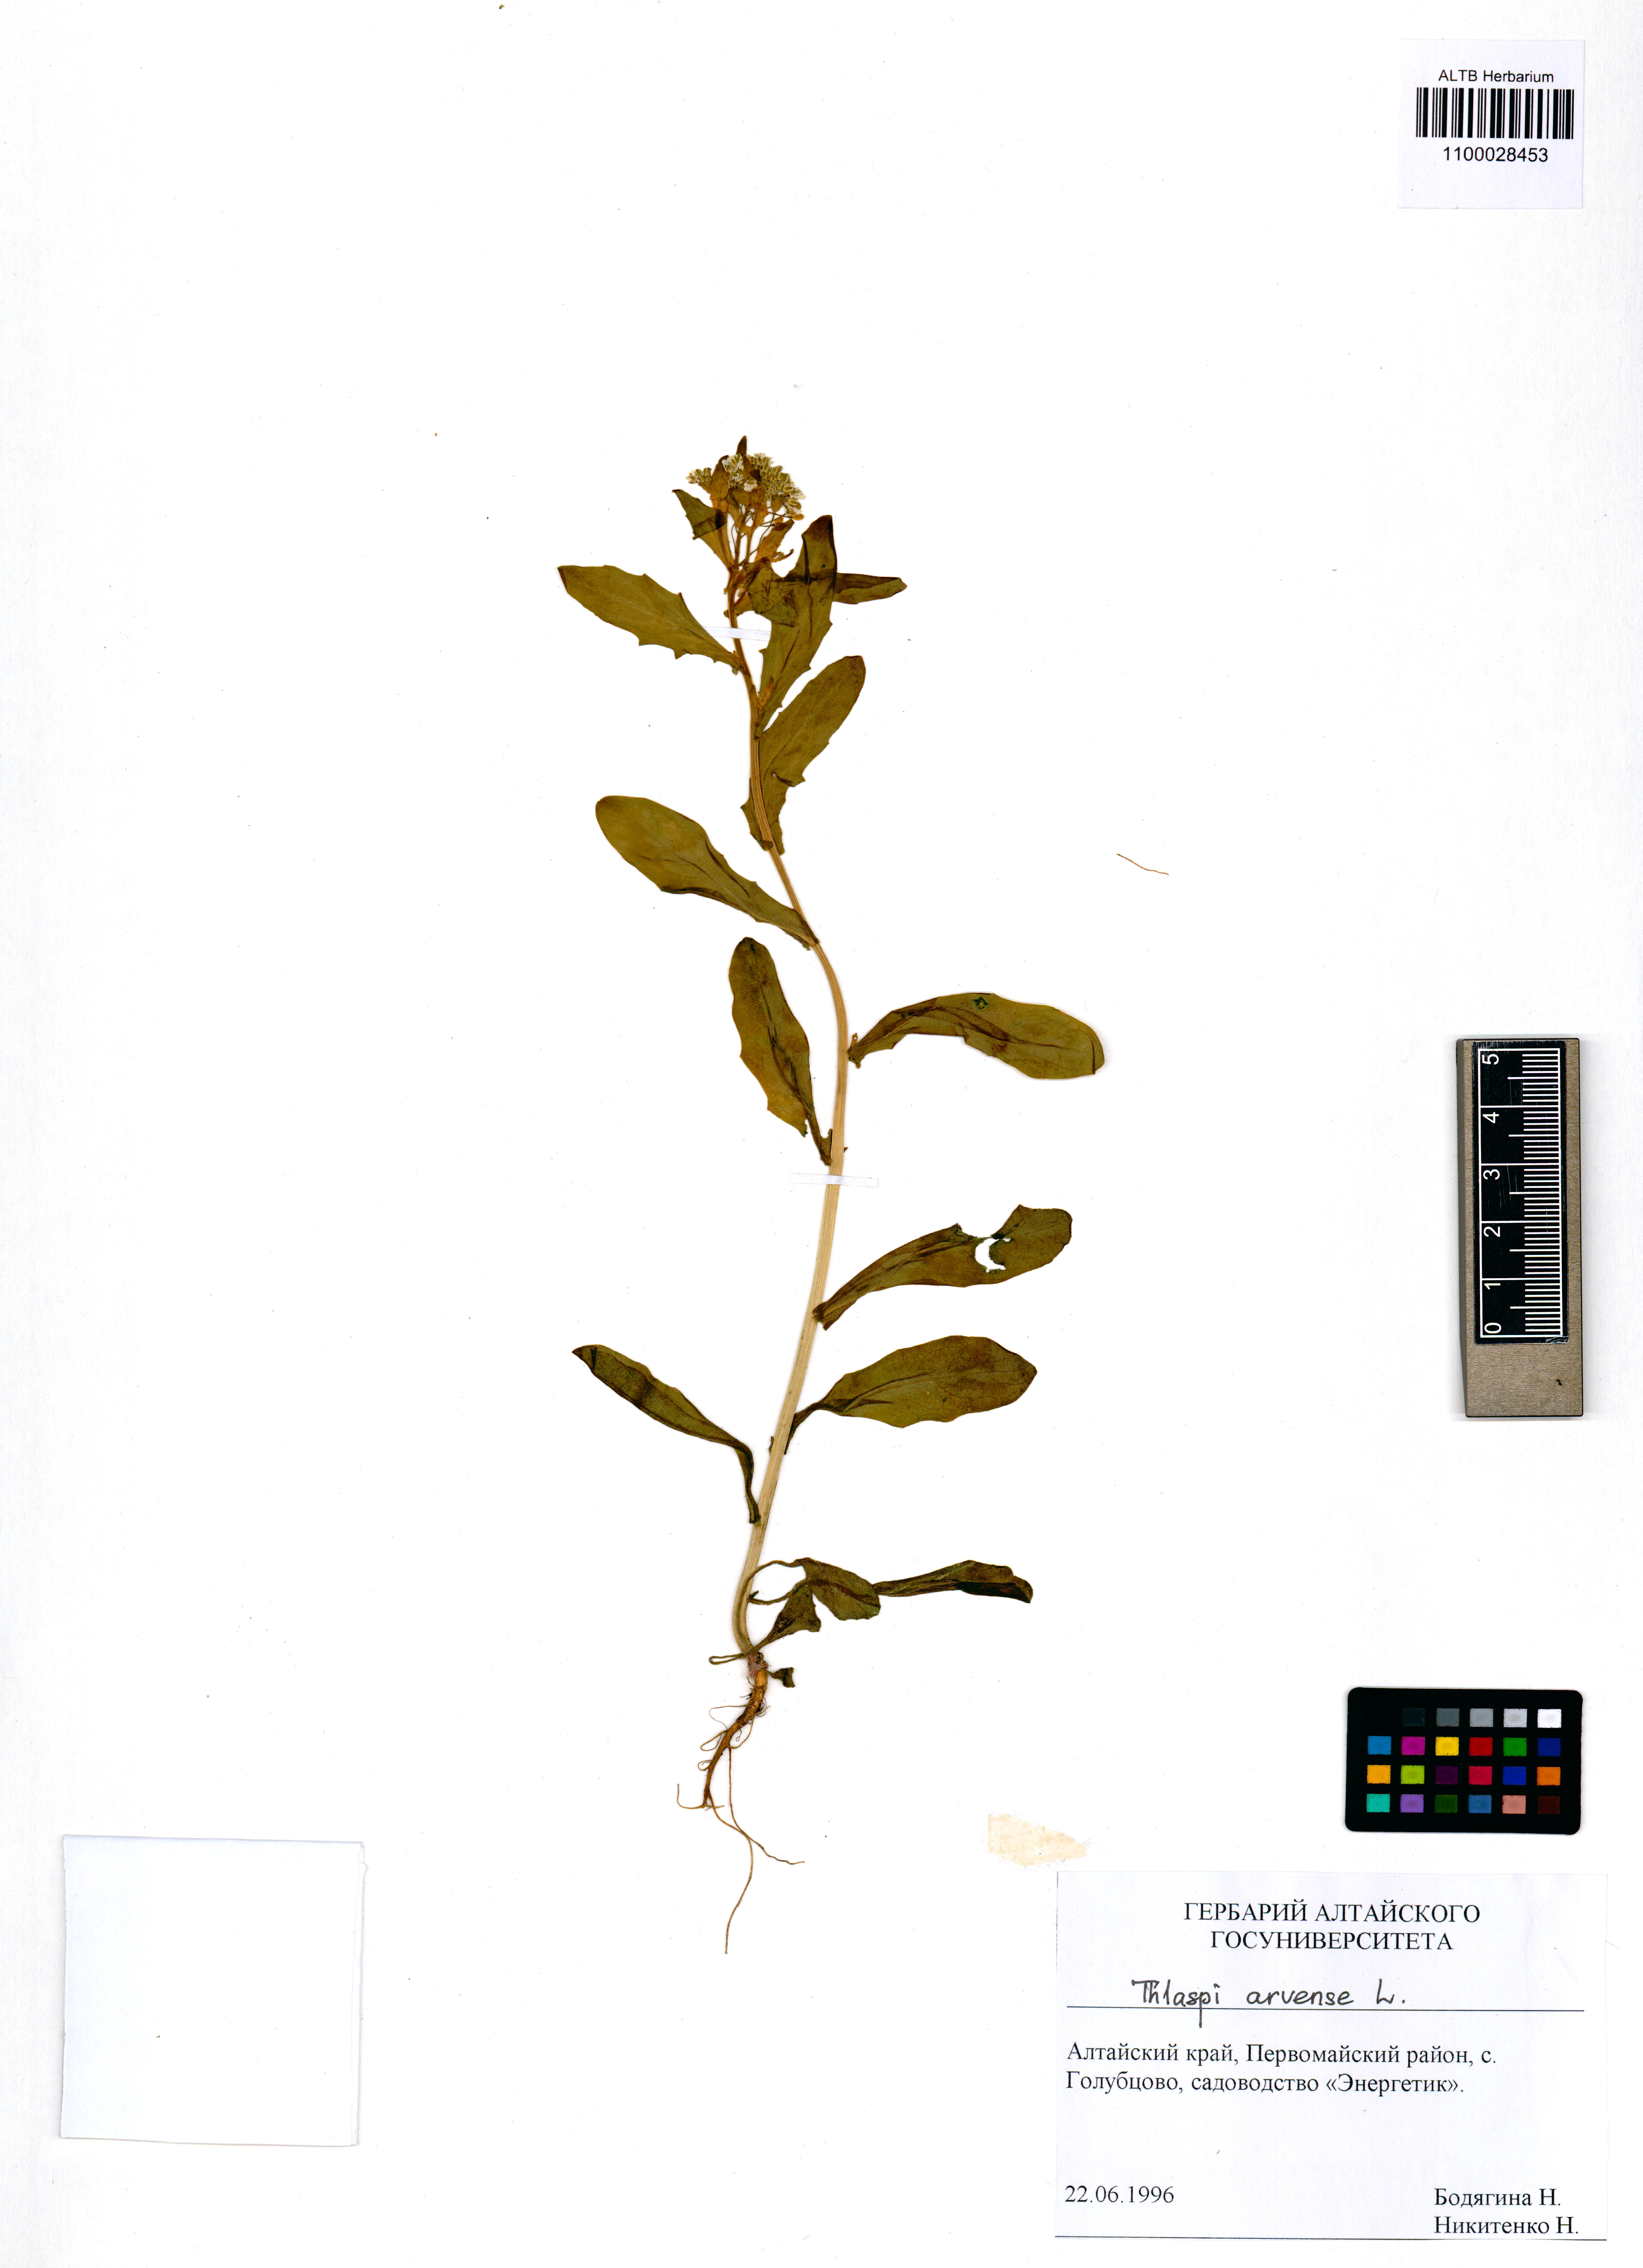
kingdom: Plantae
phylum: Tracheophyta
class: Magnoliopsida
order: Brassicales
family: Brassicaceae
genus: Thlaspi
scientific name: Thlaspi arvense
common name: Field pennycress
